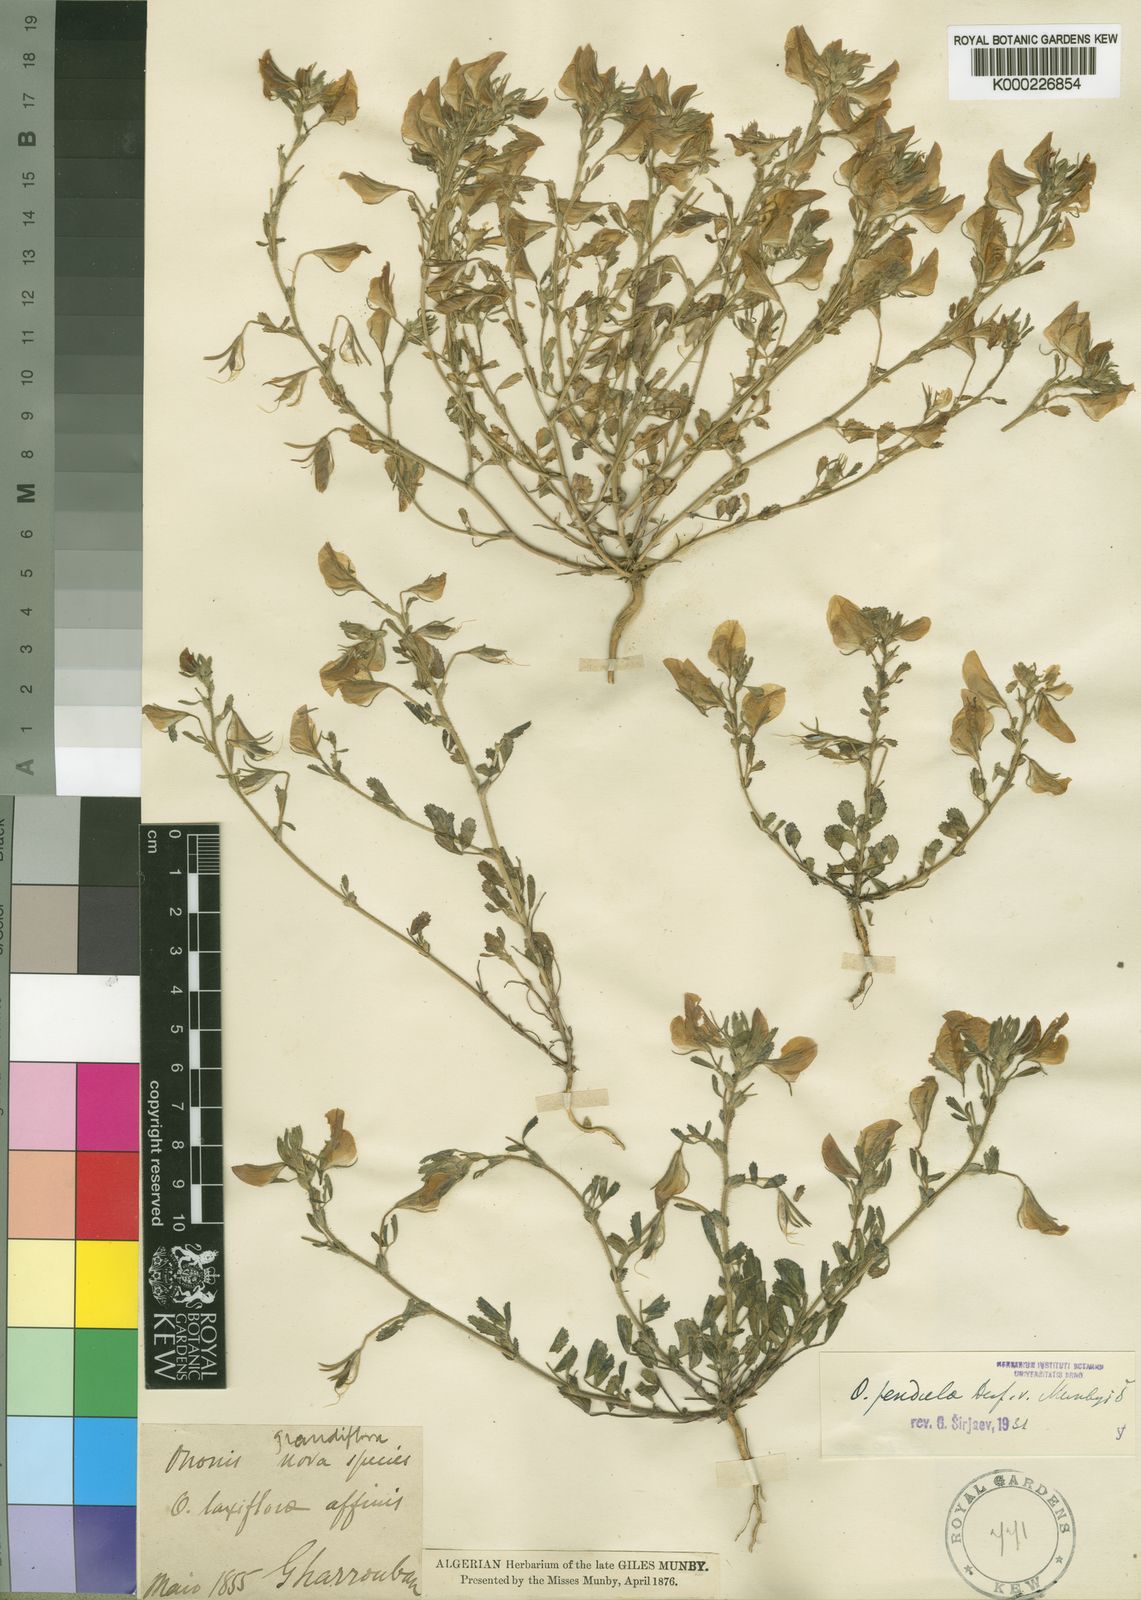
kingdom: Plantae
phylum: Tracheophyta
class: Magnoliopsida
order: Fabales
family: Fabaceae
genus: Ononis
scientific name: Ononis pendula
